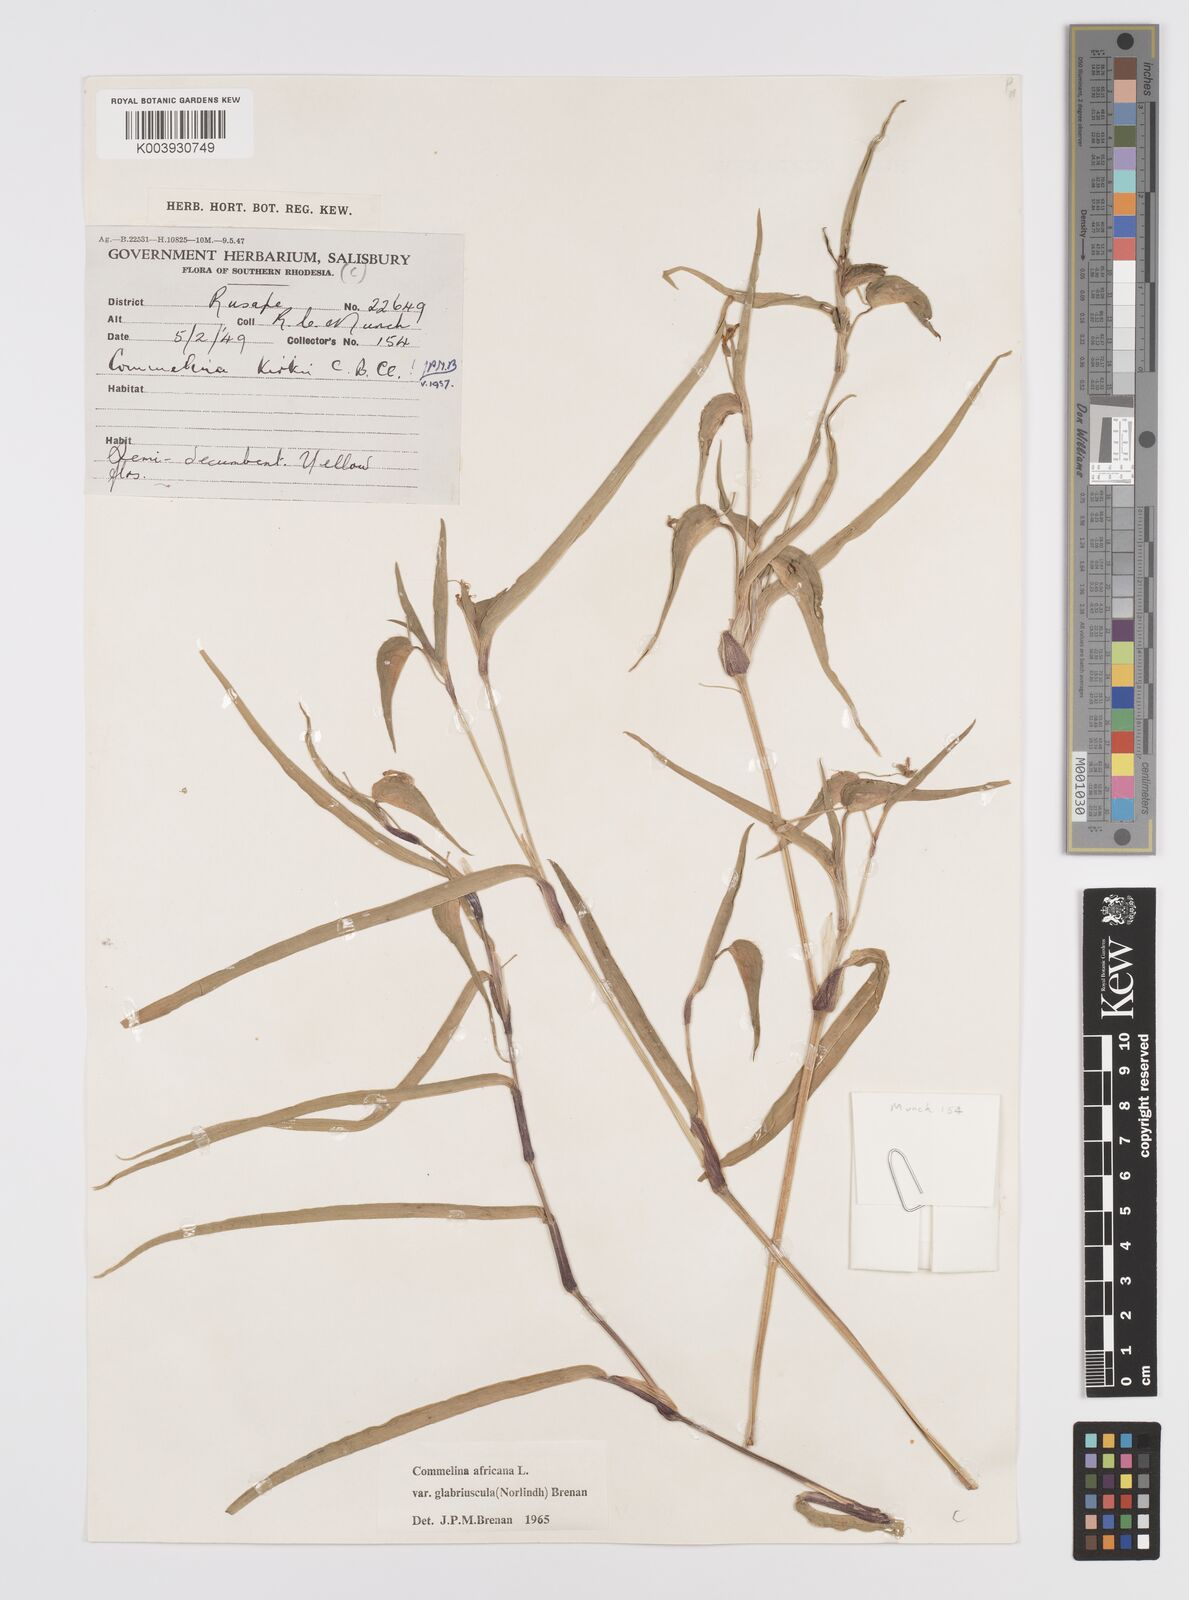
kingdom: Plantae
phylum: Tracheophyta
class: Liliopsida
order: Commelinales
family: Commelinaceae
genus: Commelina
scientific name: Commelina africana
